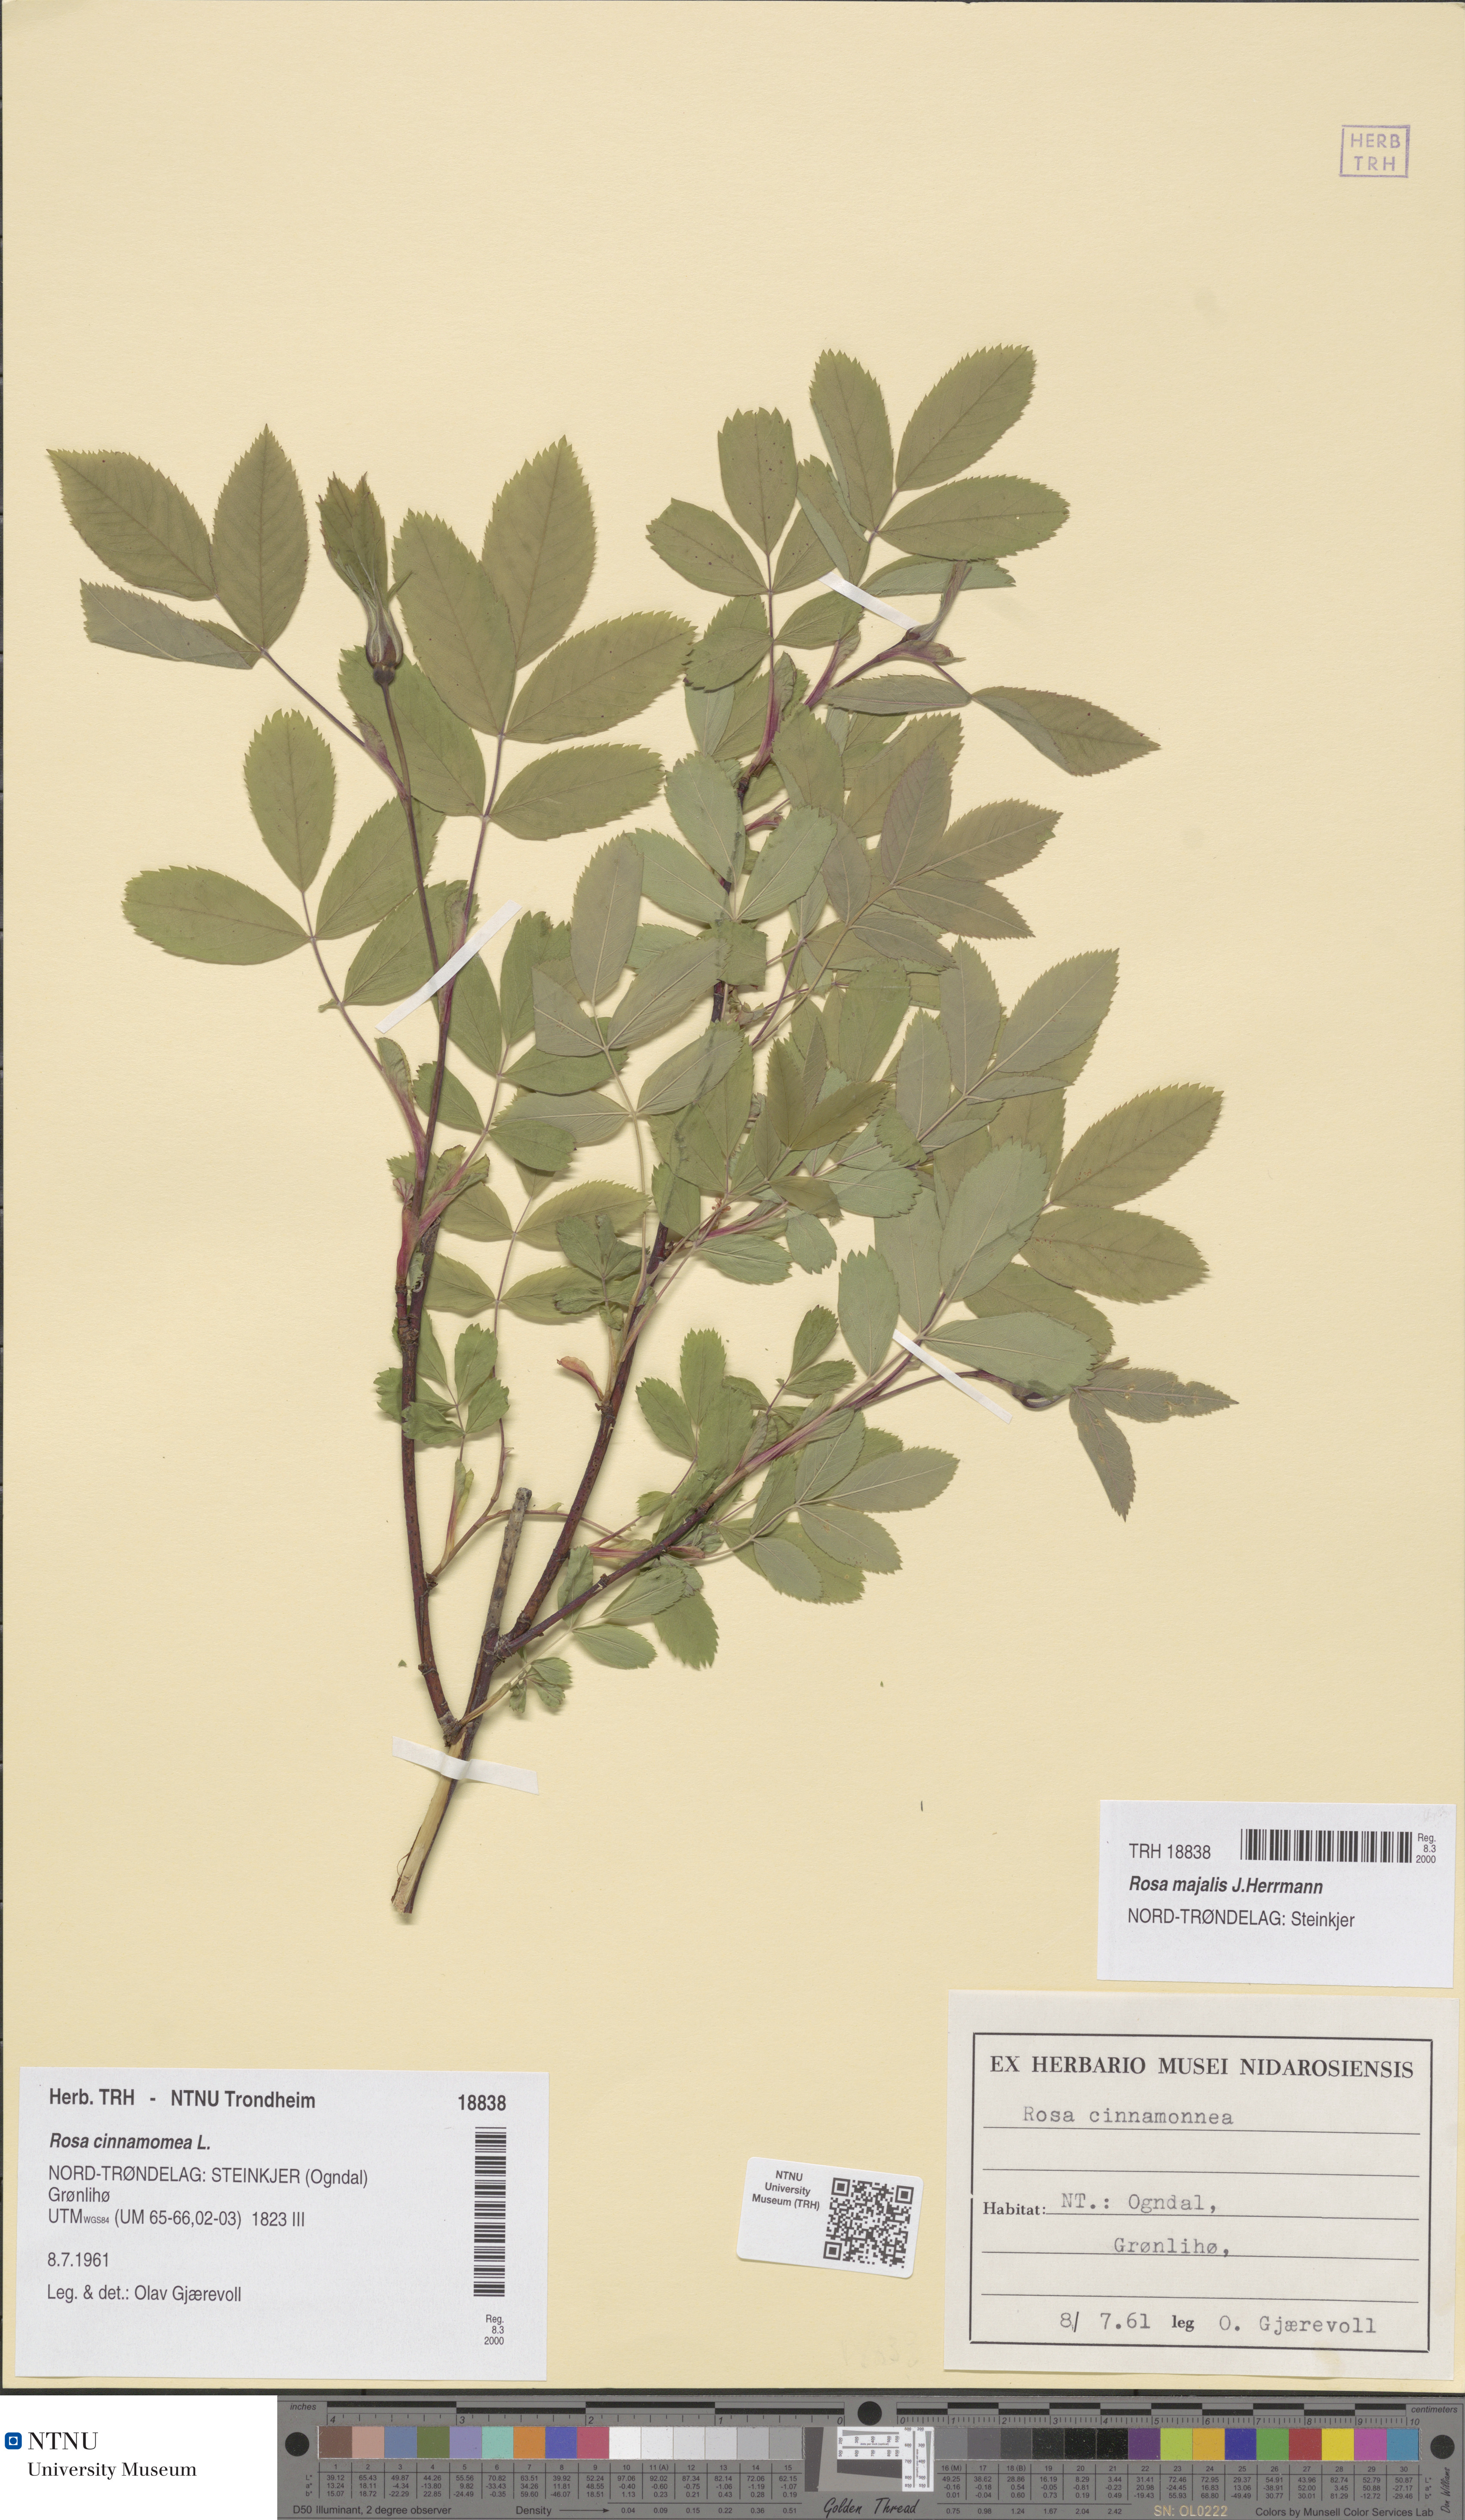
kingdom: Plantae
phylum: Tracheophyta
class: Magnoliopsida
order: Rosales
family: Rosaceae
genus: Rosa
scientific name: Rosa pendulina
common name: Alpine rose
